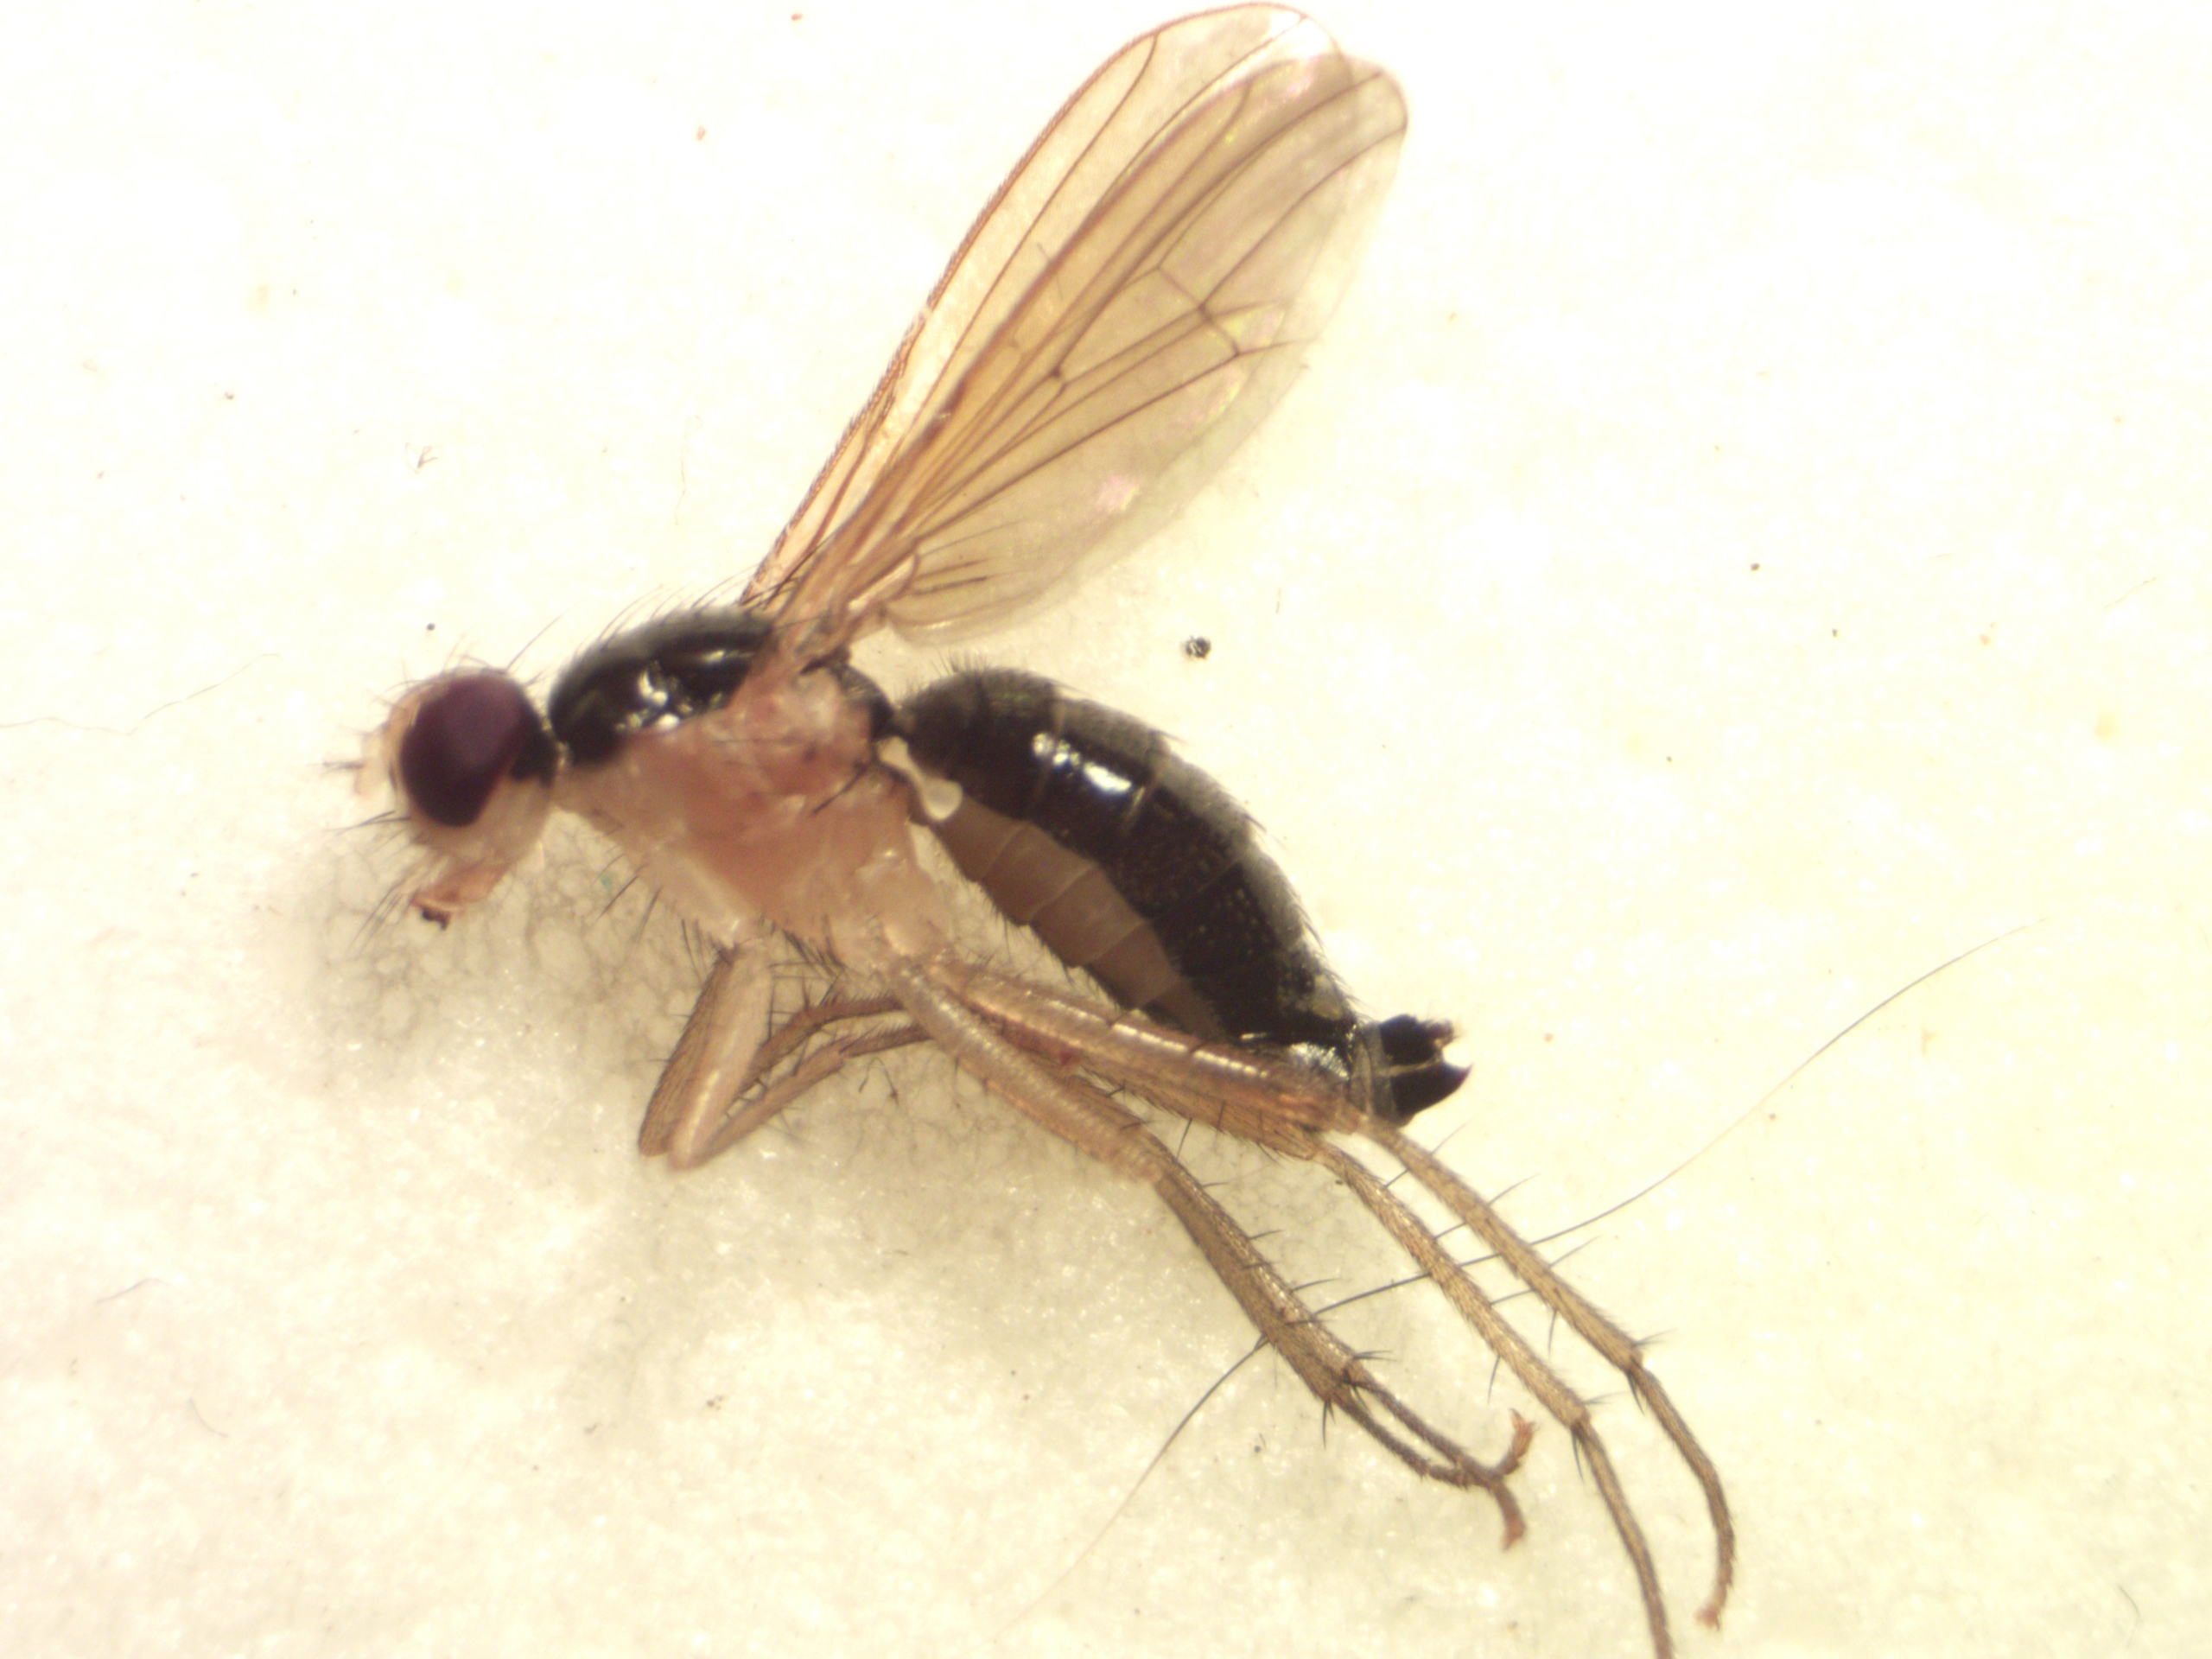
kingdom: Animalia
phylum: Arthropoda
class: Insecta
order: Diptera
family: Scathophagidae
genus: Cordilura
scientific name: Cordilura albipes
